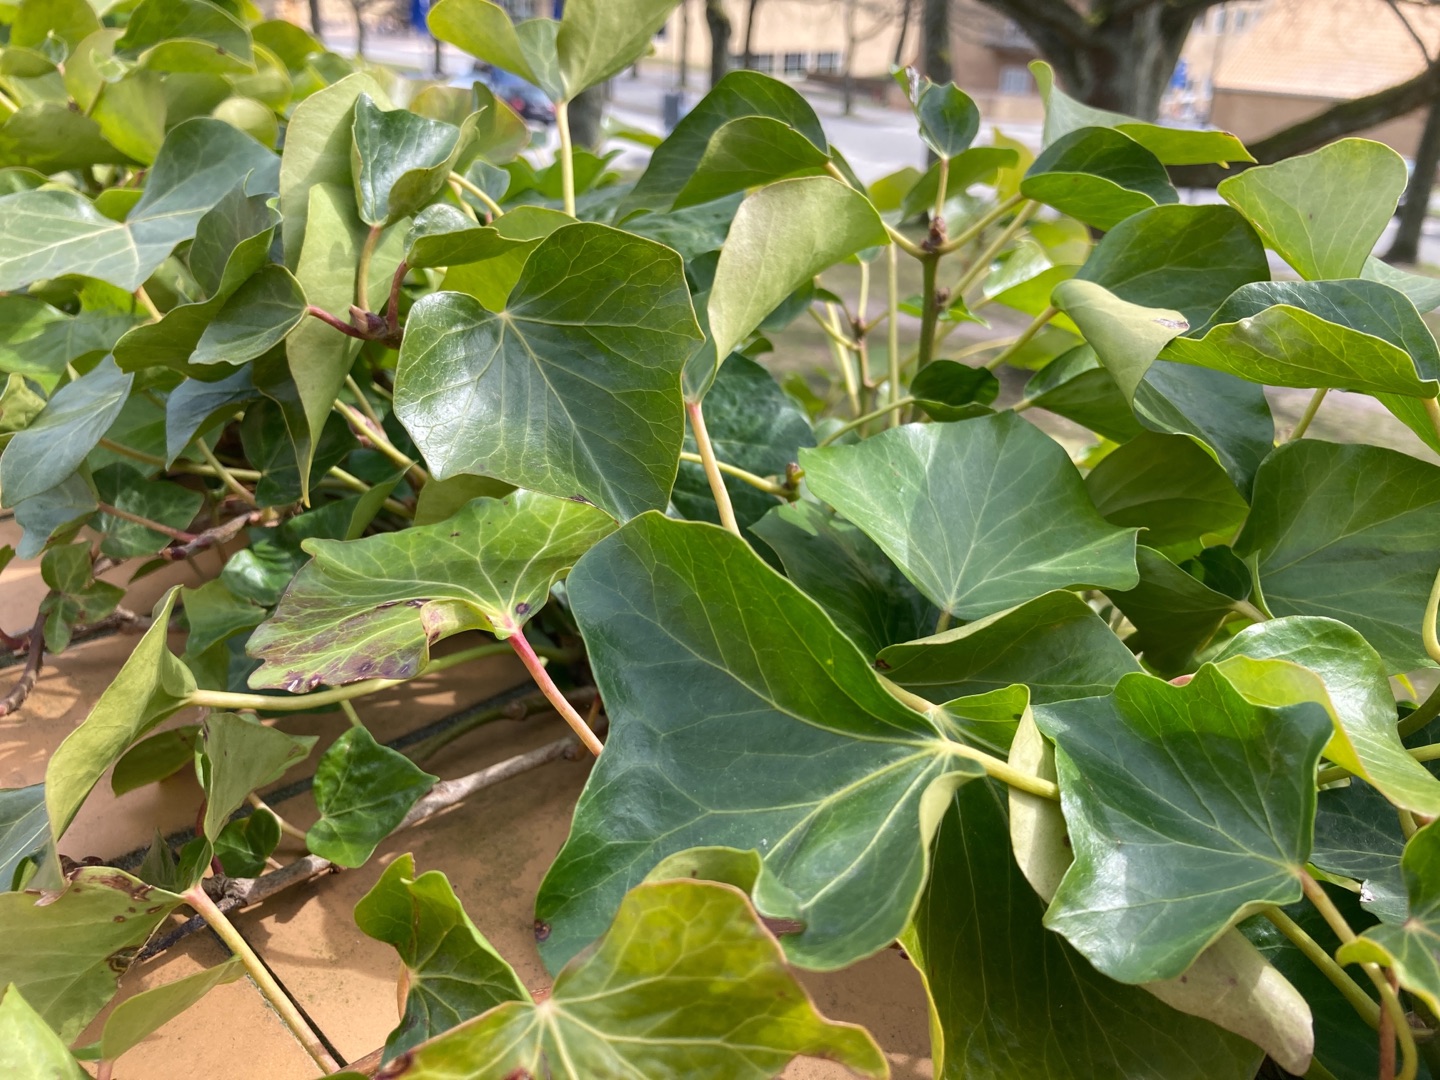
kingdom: Plantae
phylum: Tracheophyta
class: Magnoliopsida
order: Apiales
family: Araliaceae
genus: Hedera
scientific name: Hedera hibernica
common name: Irsk vedbend
